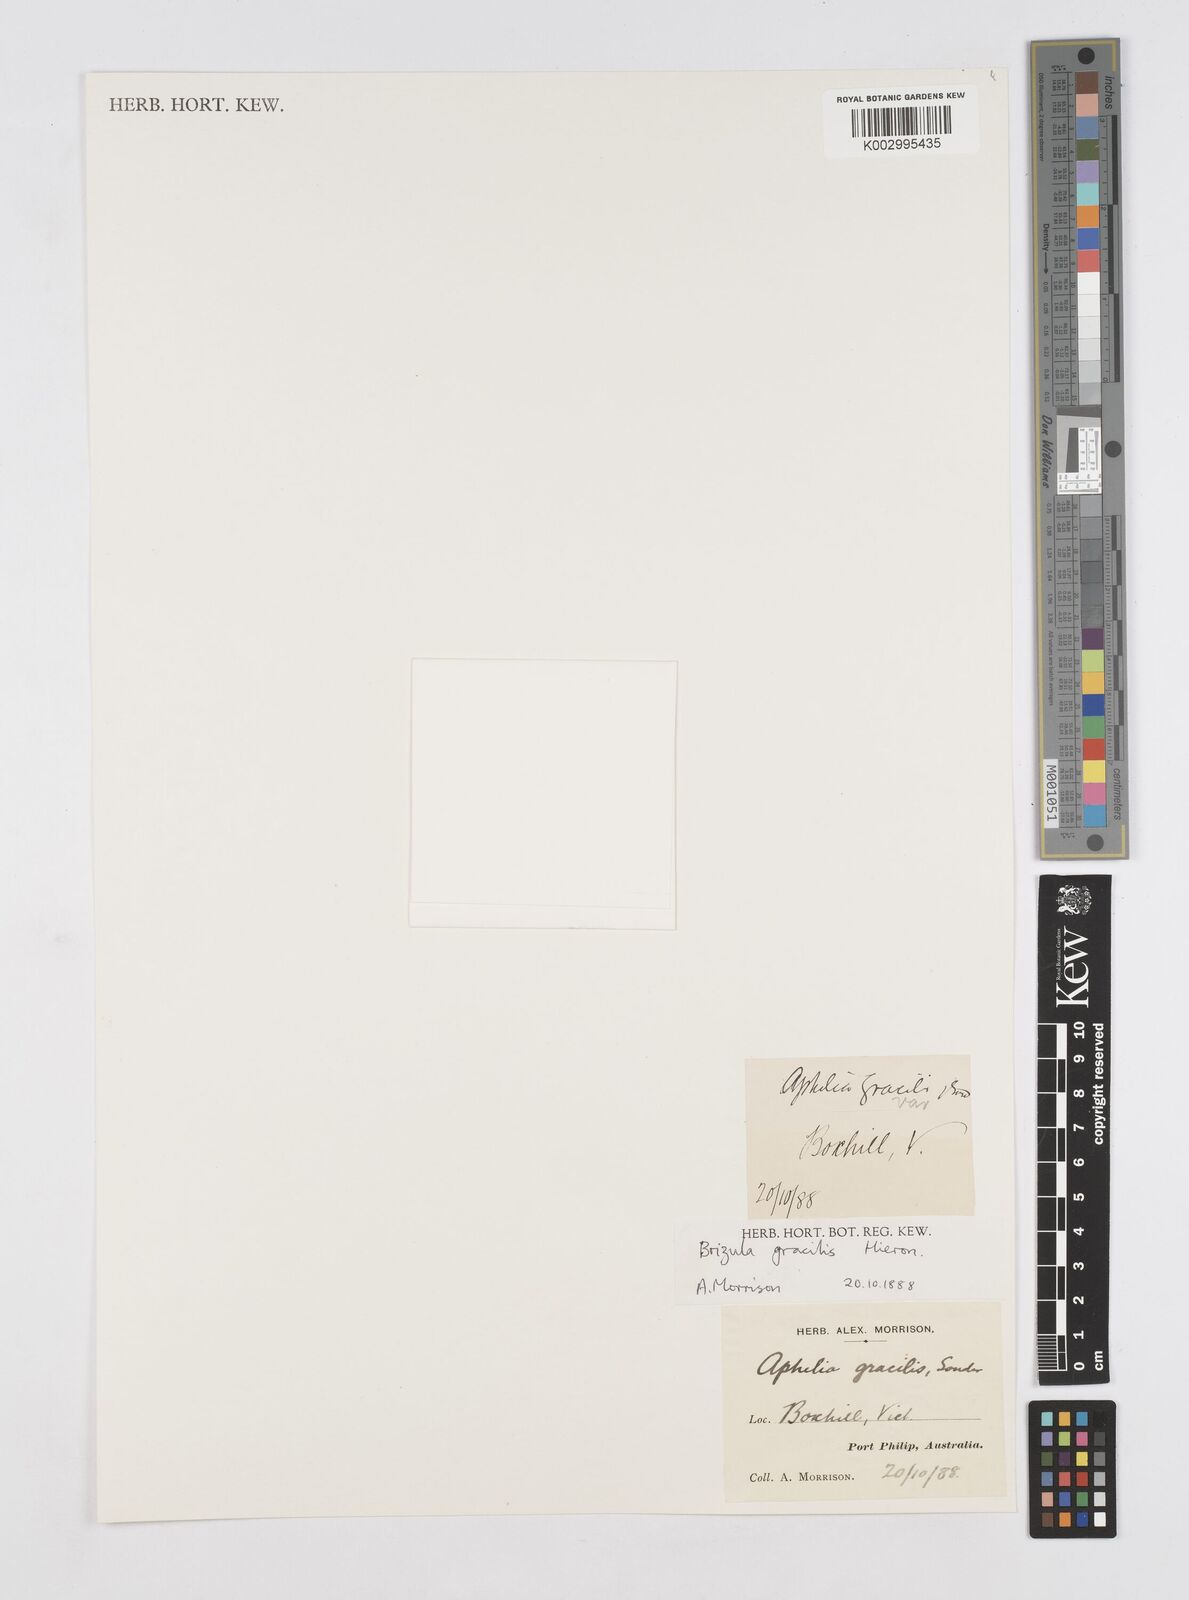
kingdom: Plantae
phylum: Tracheophyta
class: Liliopsida
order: Poales
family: Restionaceae
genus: Aphelia
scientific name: Aphelia gracilis
